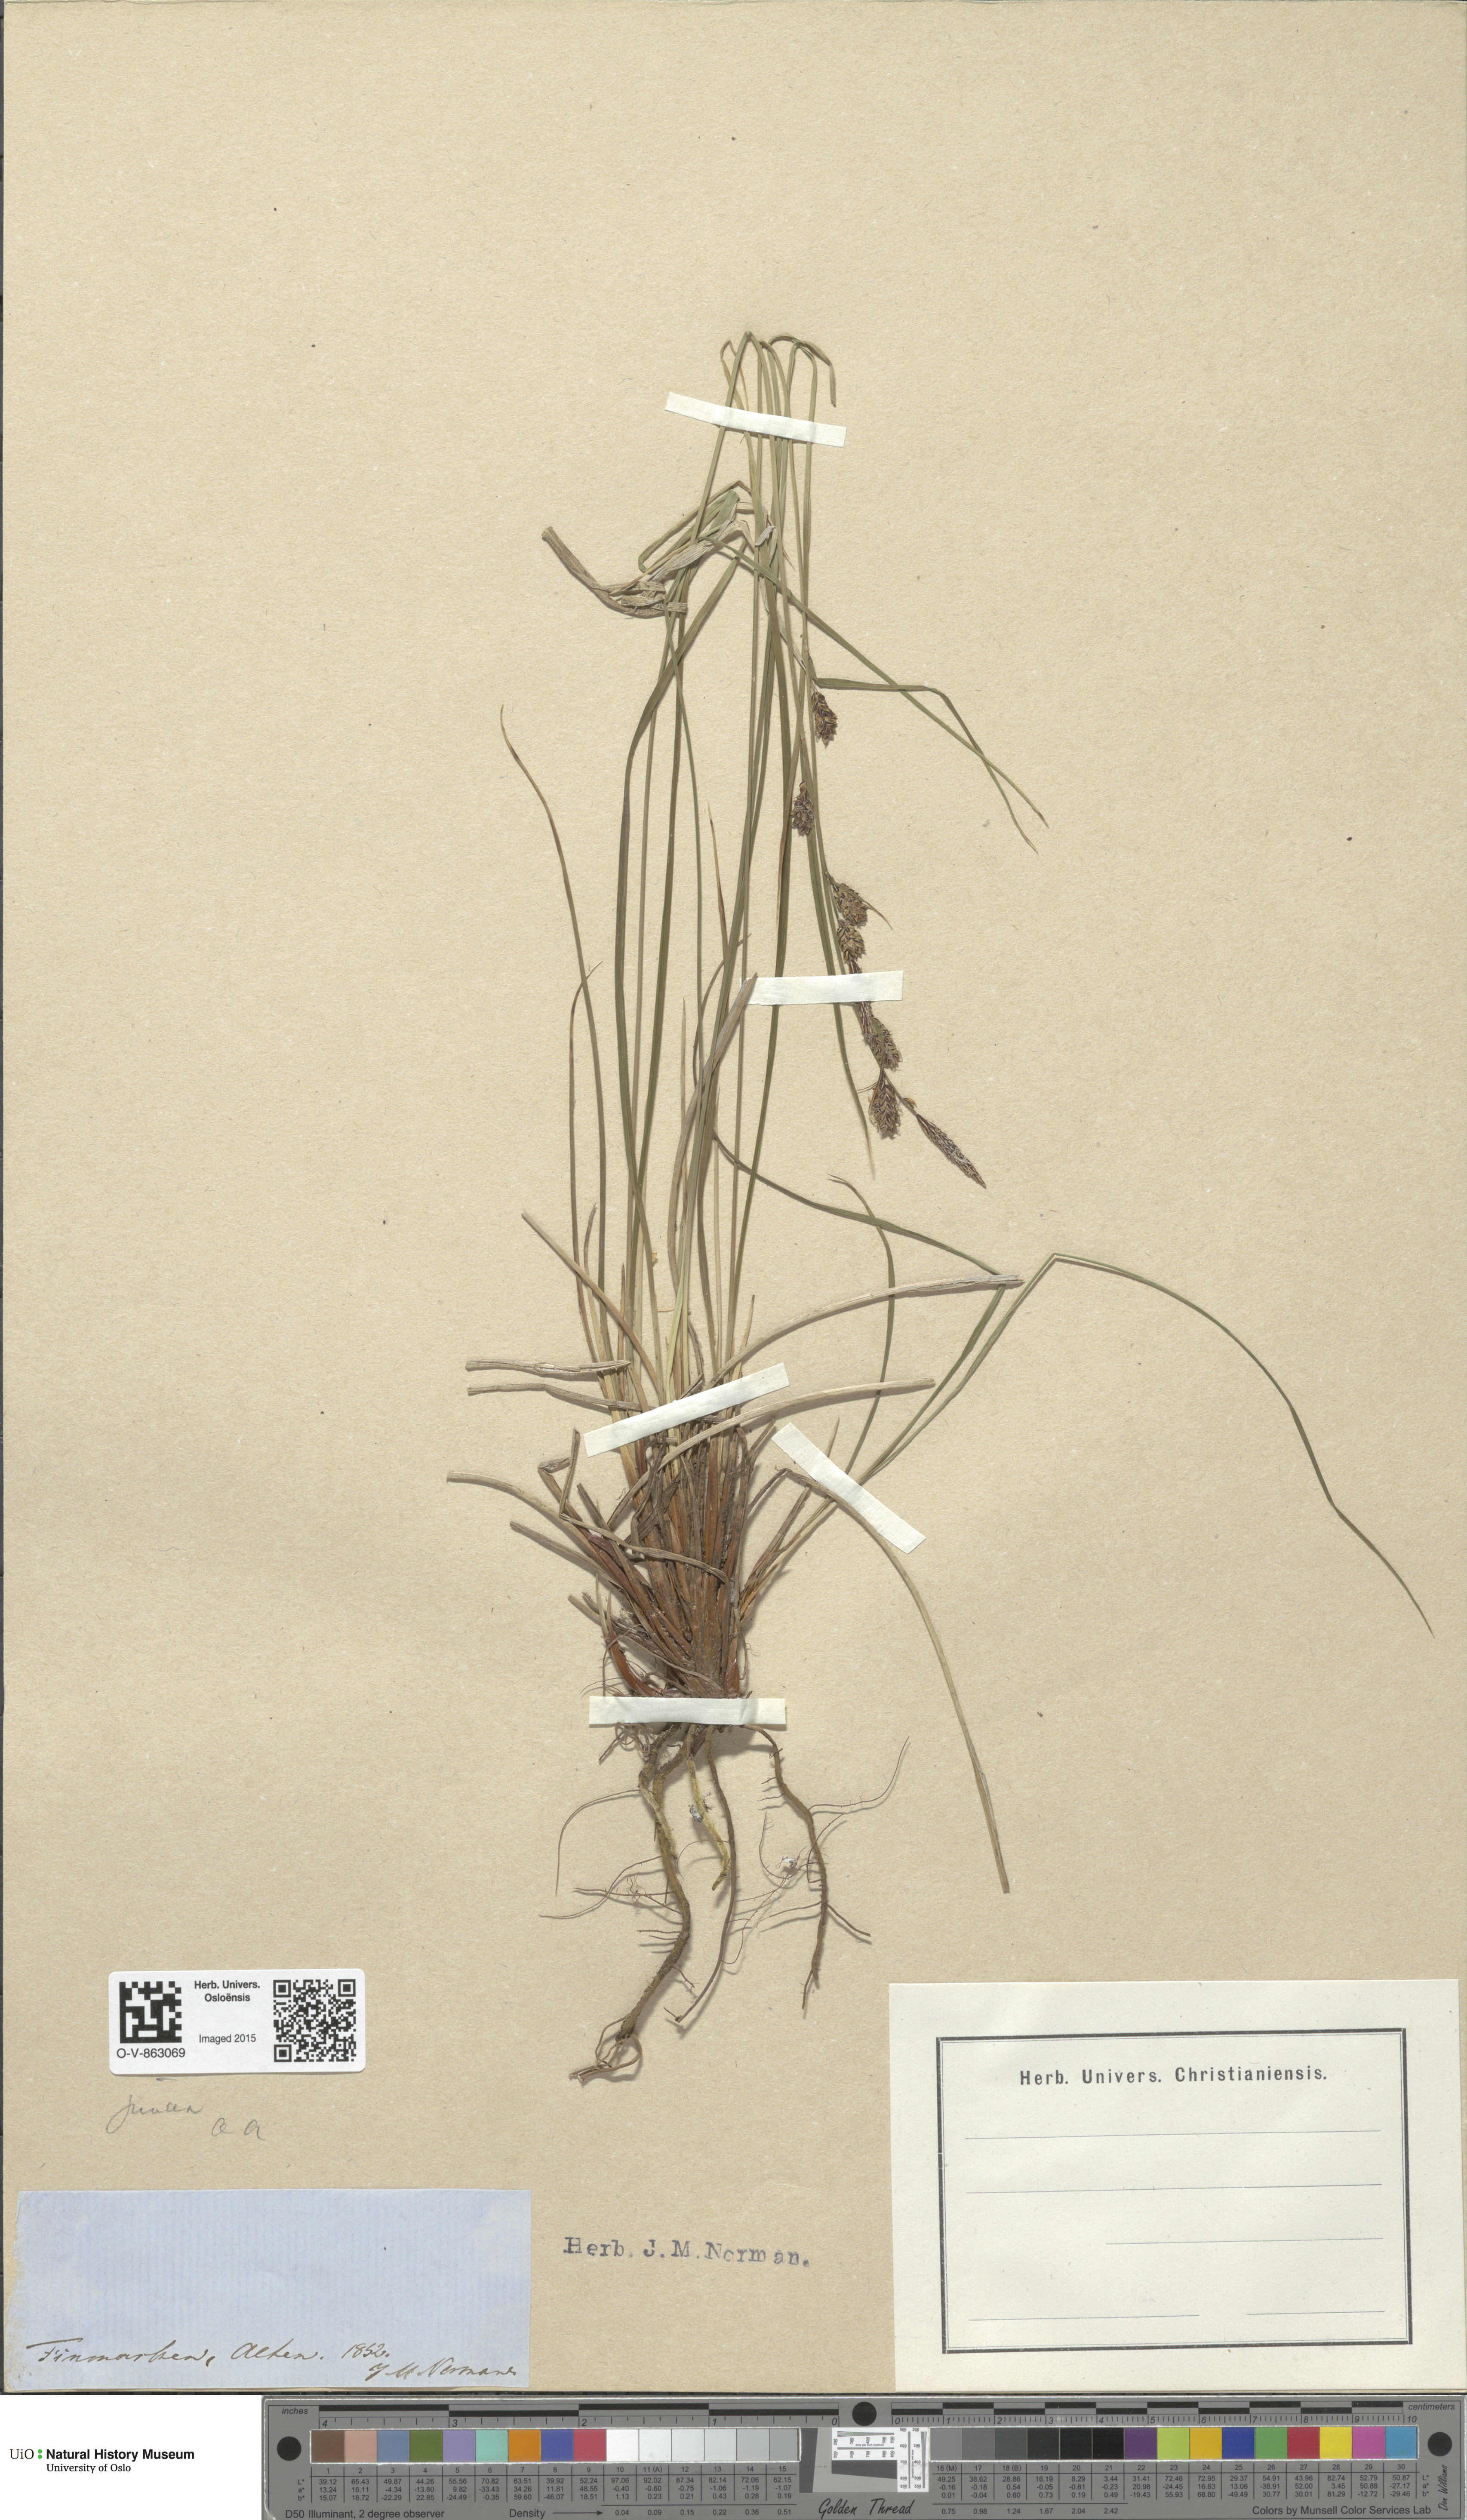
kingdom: Plantae
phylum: Tracheophyta
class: Liliopsida
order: Poales
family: Cyperaceae
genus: Carex
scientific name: Carex nigra
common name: Common sedge
